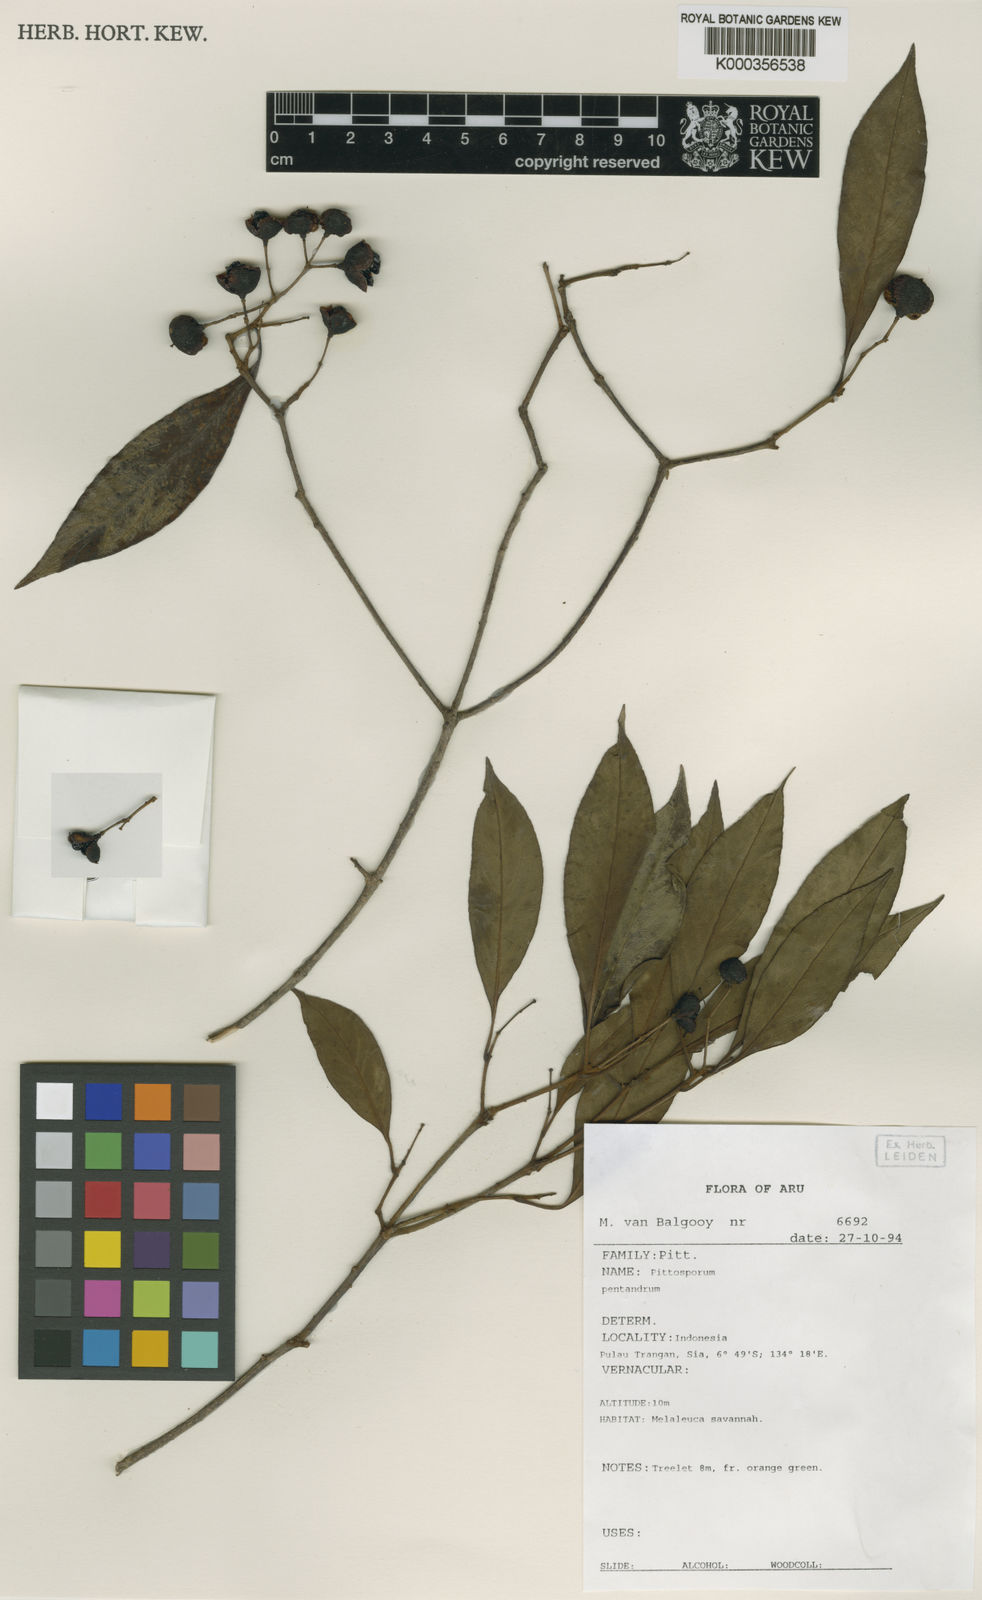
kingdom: Plantae
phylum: Tracheophyta
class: Magnoliopsida
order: Apiales
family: Pittosporaceae
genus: Pittosporum
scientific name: Pittosporum pentandrum
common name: Taiwanese cheesewood
